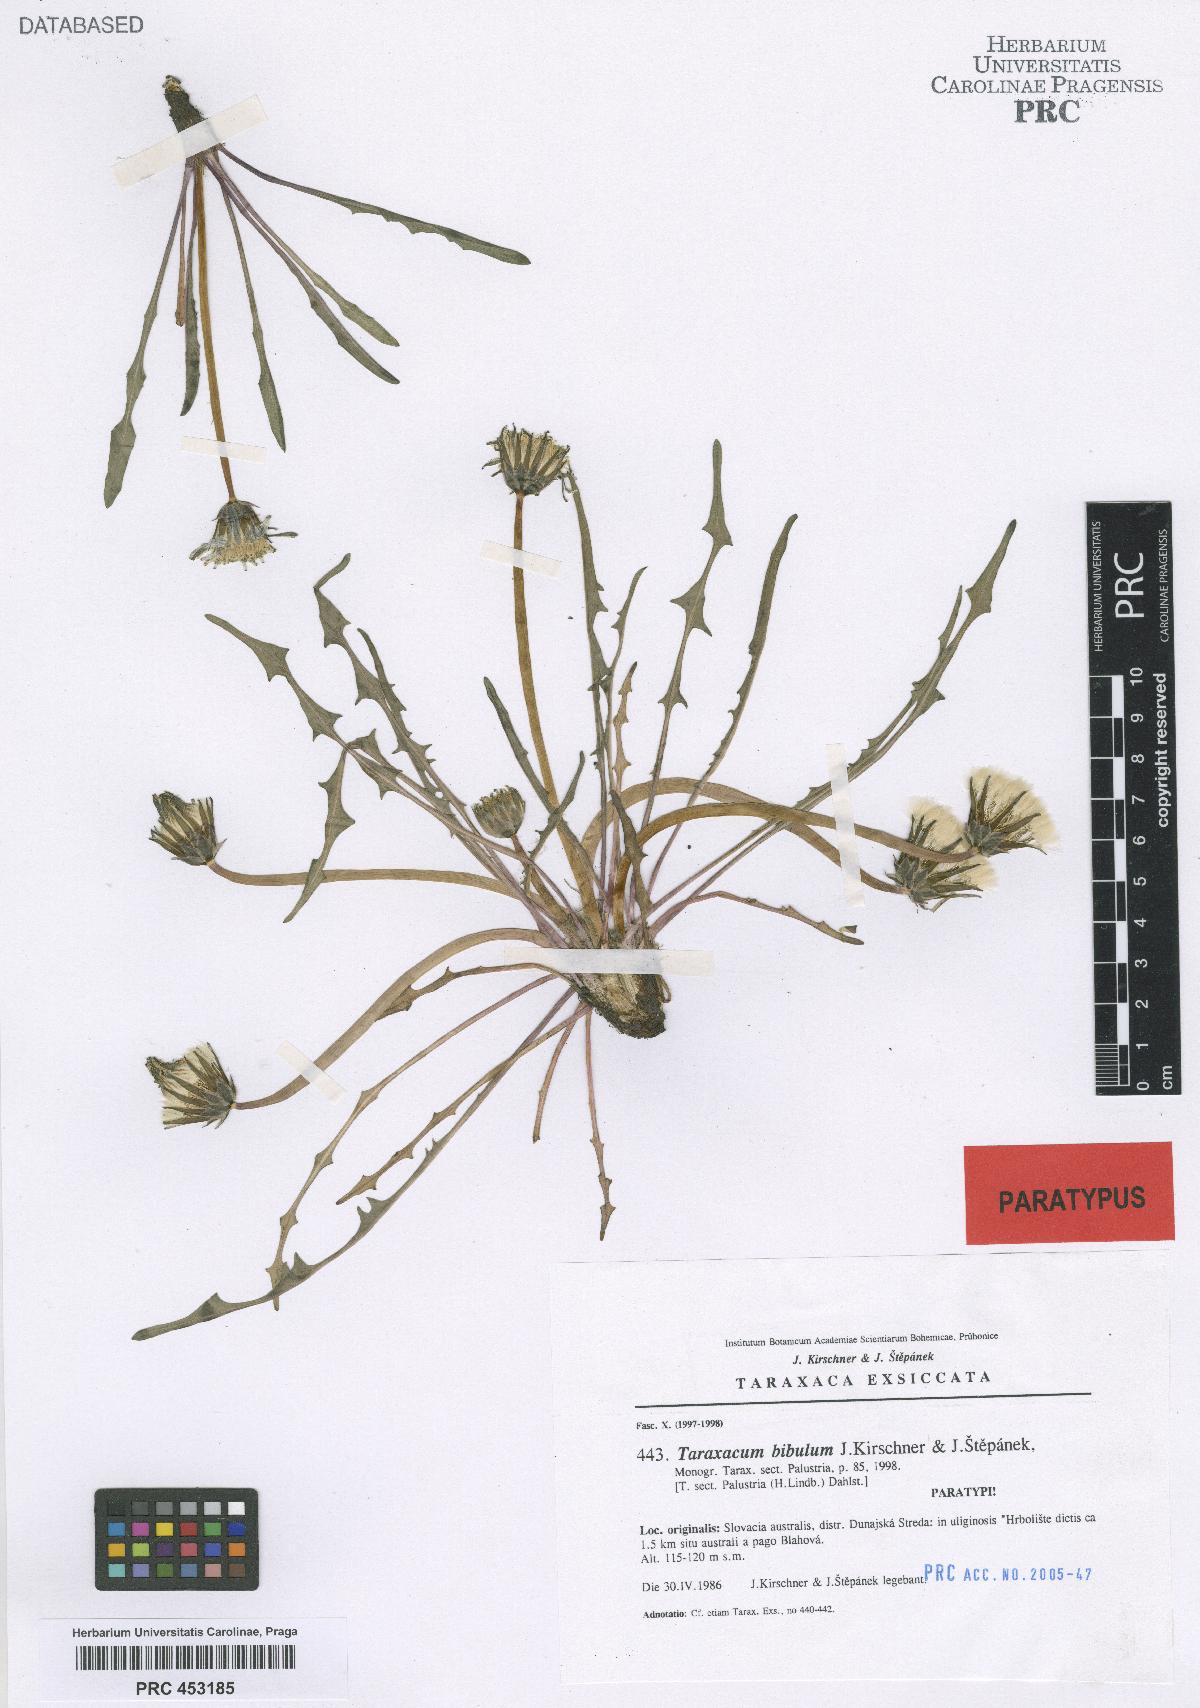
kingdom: Plantae
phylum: Tracheophyta
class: Magnoliopsida
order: Asterales
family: Asteraceae
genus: Taraxacum
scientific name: Taraxacum bibulum
